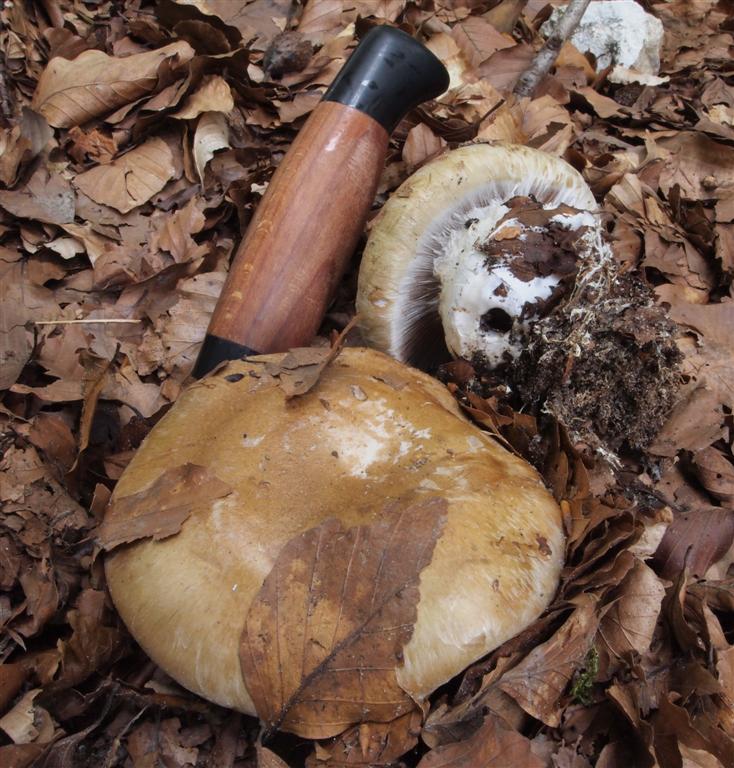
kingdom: Fungi
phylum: Basidiomycota
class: Agaricomycetes
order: Agaricales
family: Cortinariaceae
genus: Cortinarius
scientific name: Cortinarius anserinus
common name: bøge-slørhat
